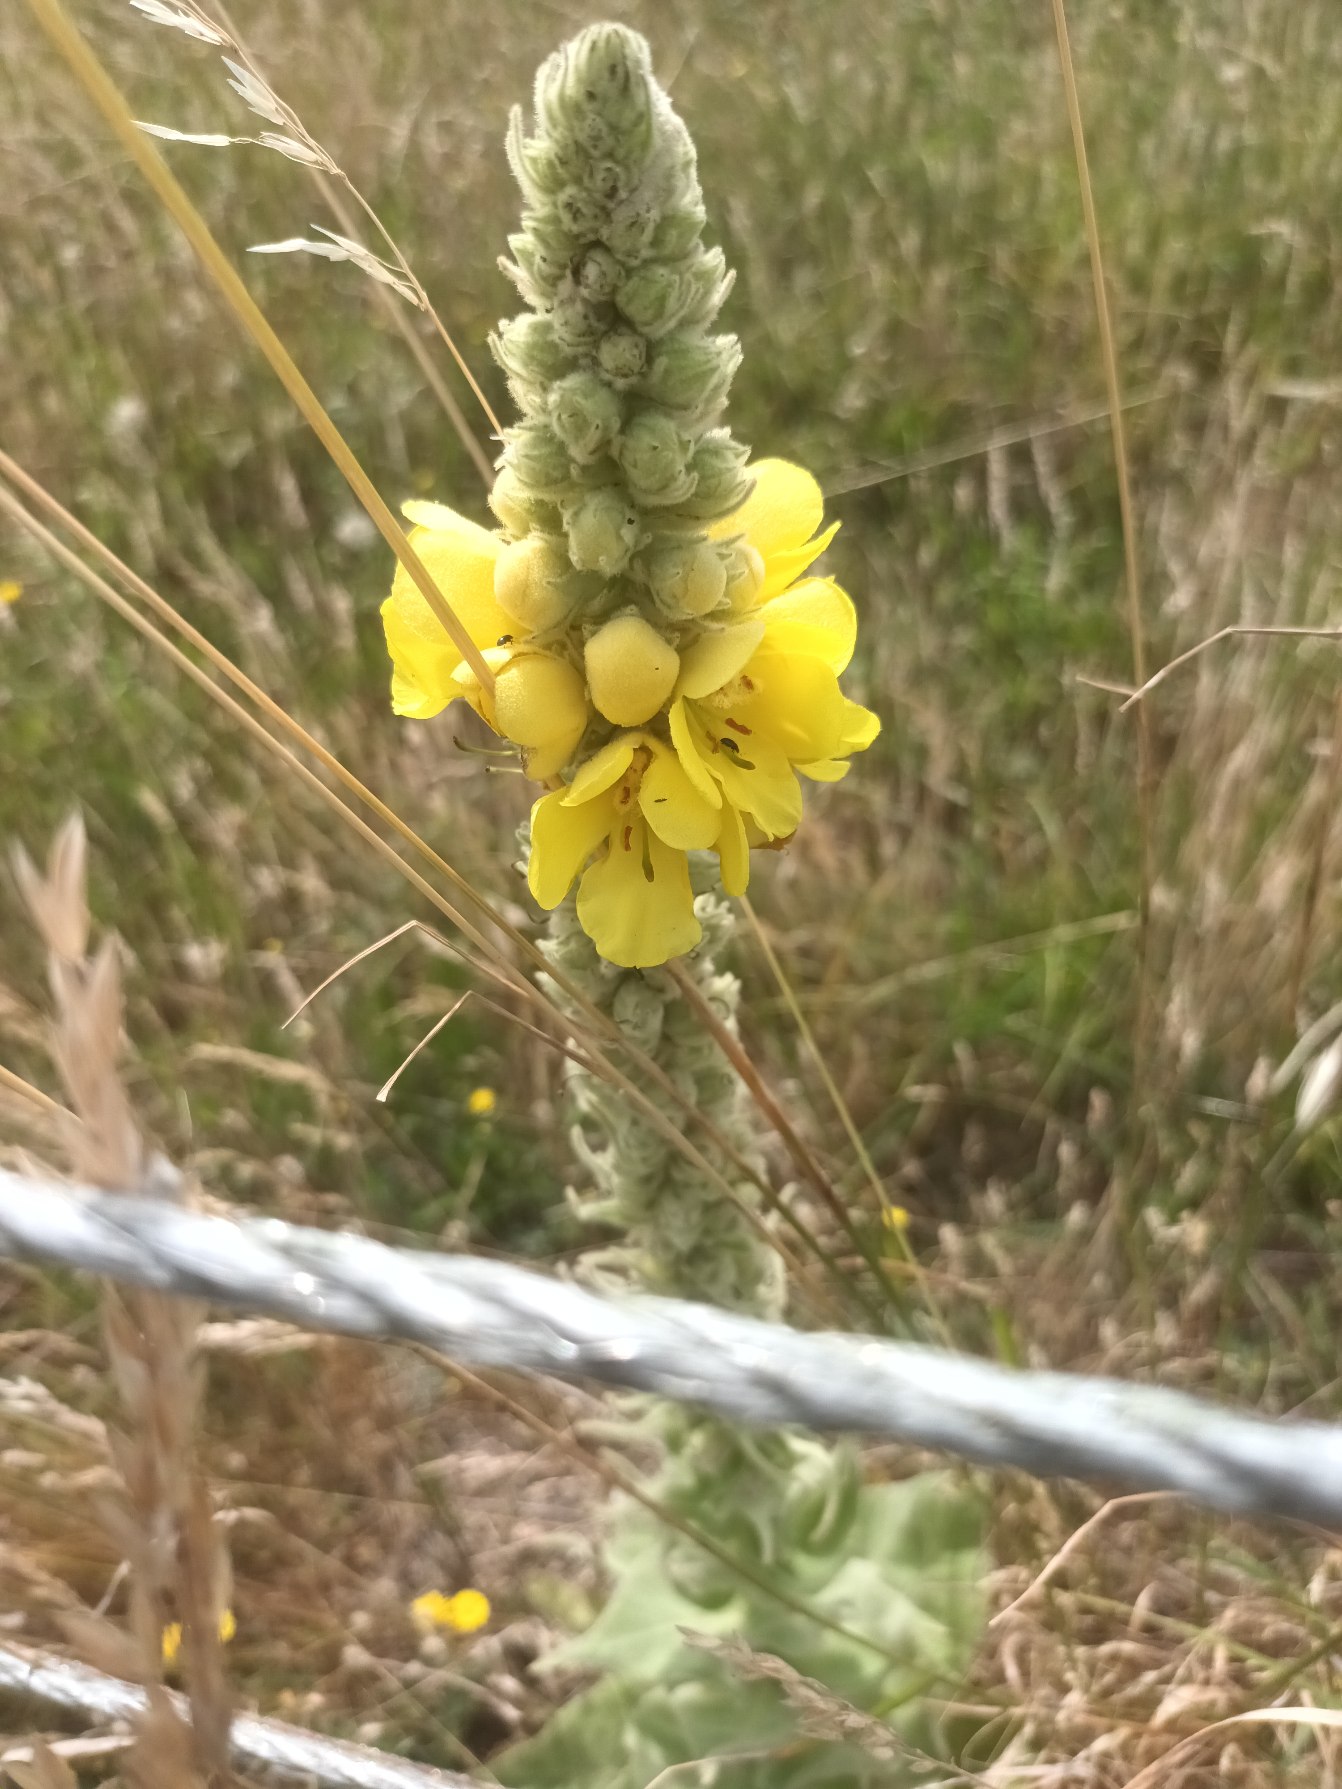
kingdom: Plantae
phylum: Tracheophyta
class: Magnoliopsida
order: Lamiales
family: Scrophulariaceae
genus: Verbascum
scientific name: Verbascum densiflorum
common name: Uldbladet kongelys
